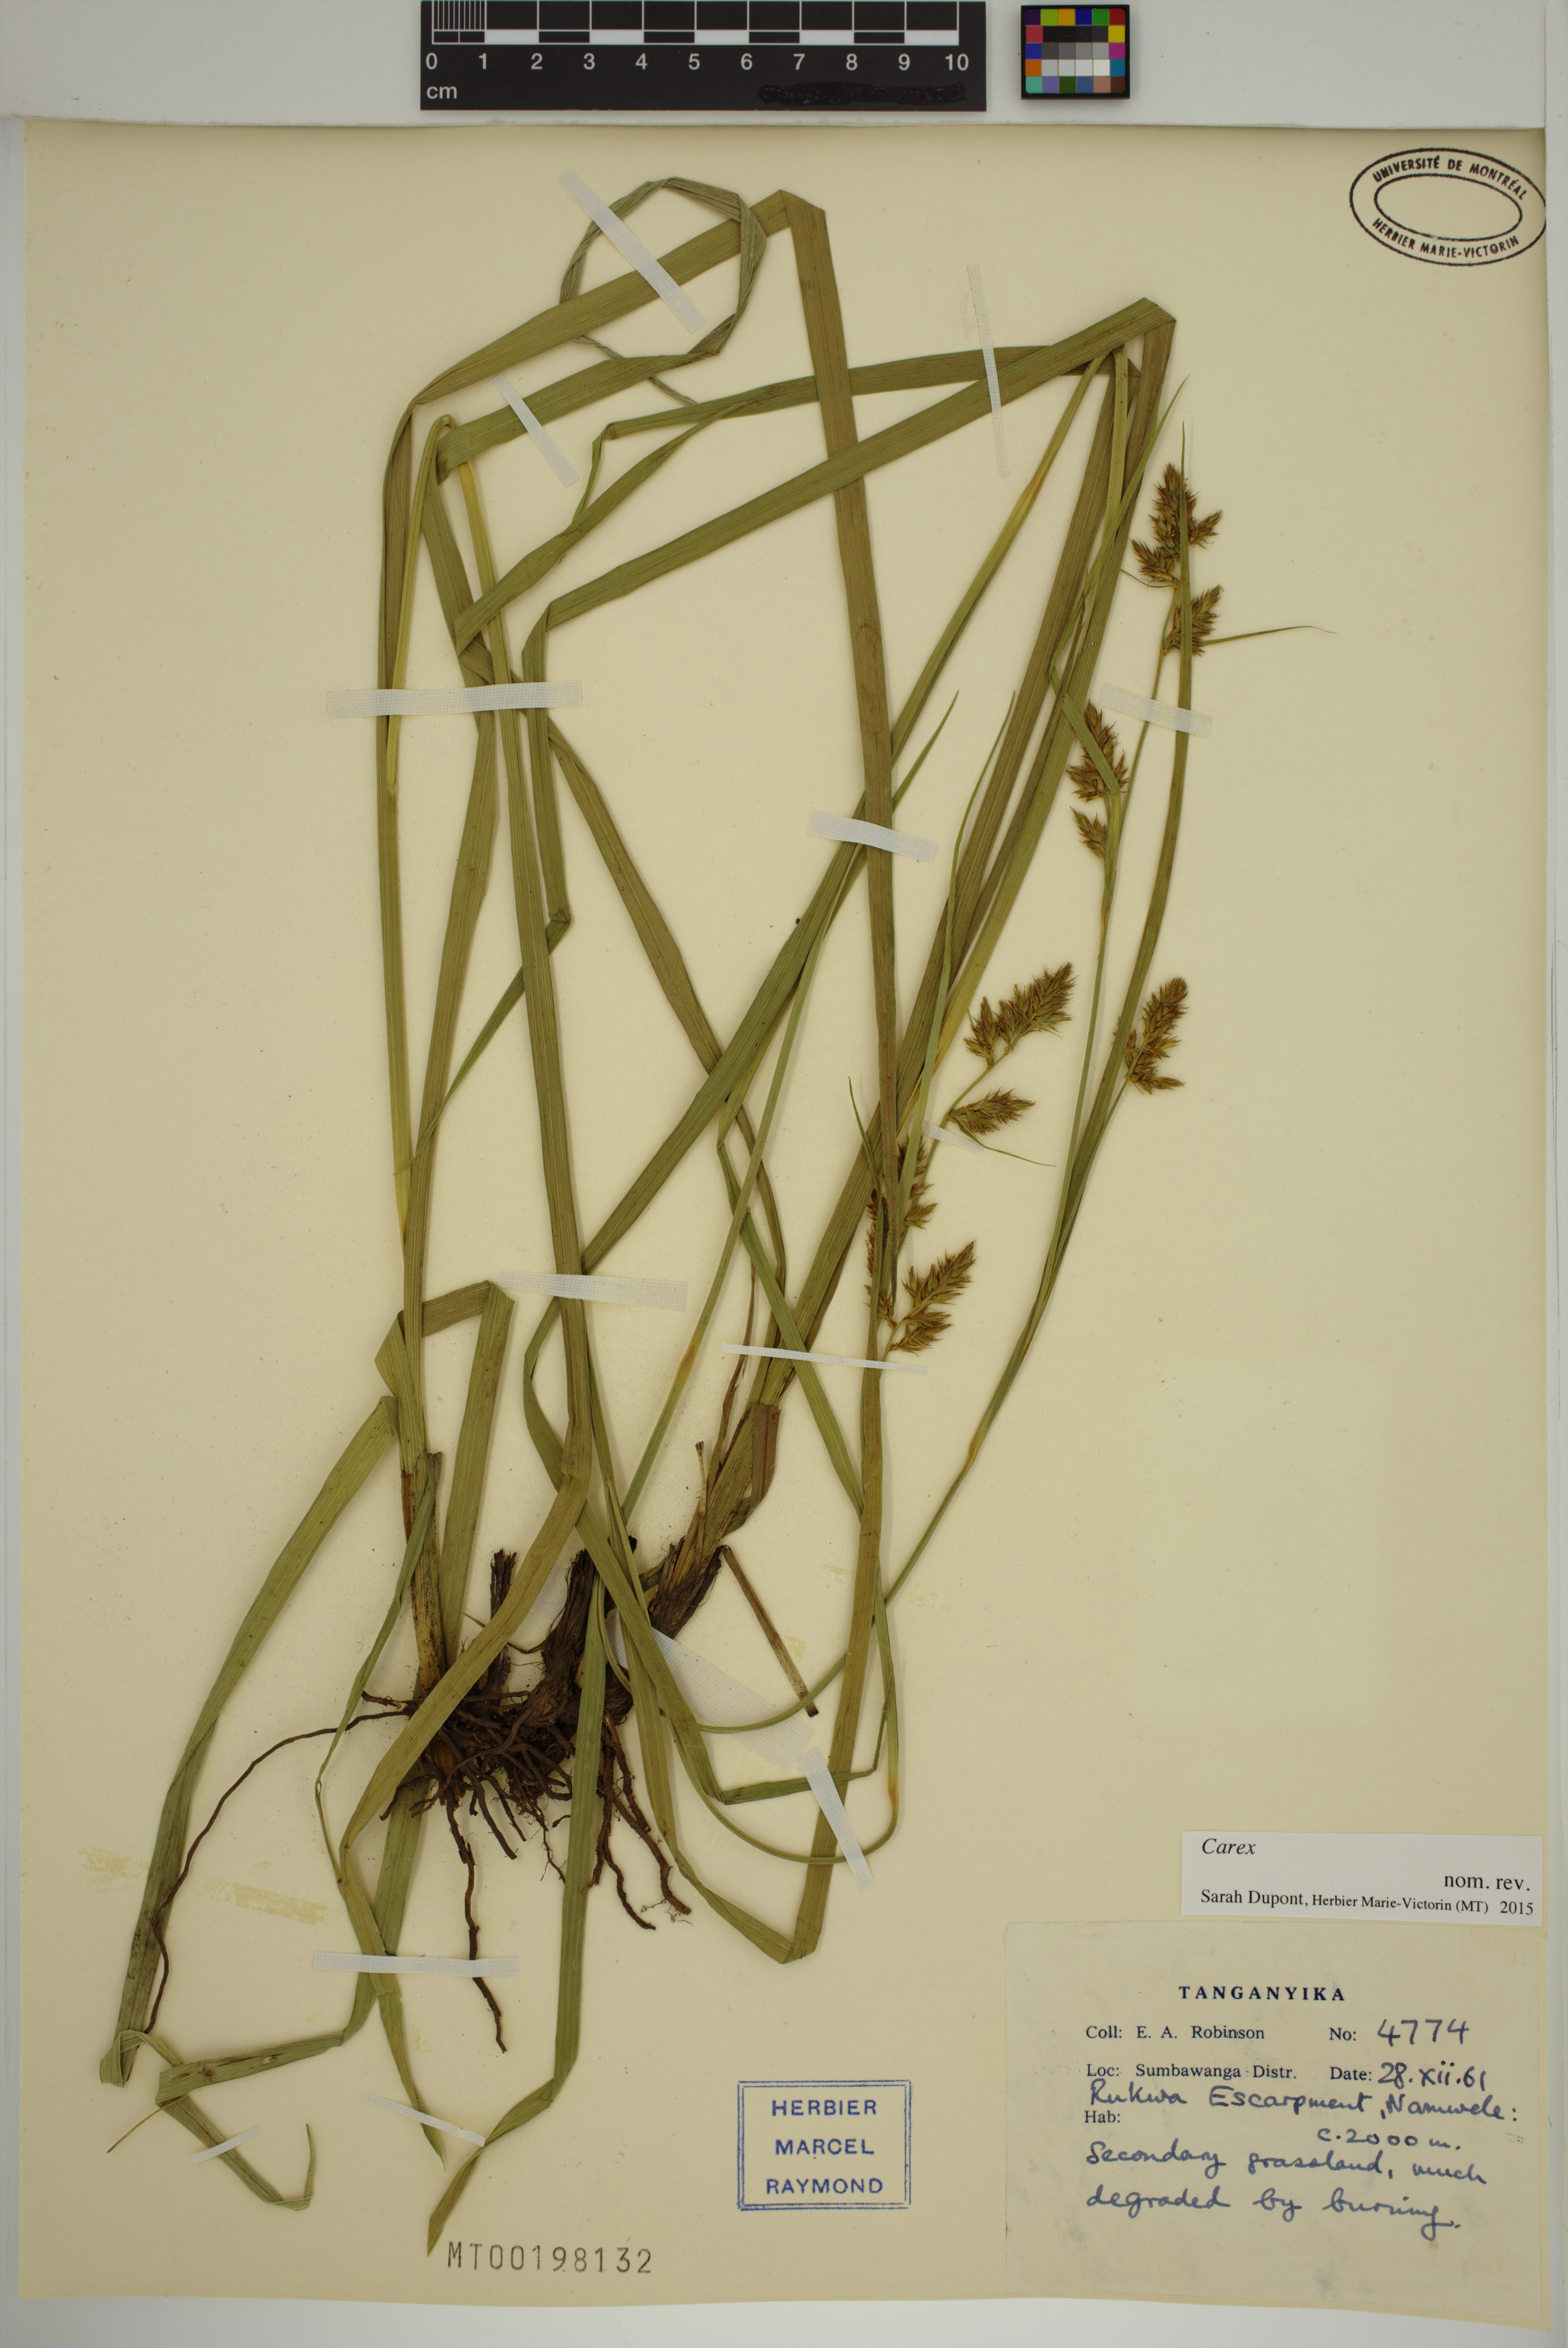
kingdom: Plantae
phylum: Tracheophyta
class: Liliopsida
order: Poales
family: Cyperaceae
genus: Carex
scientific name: Carex
